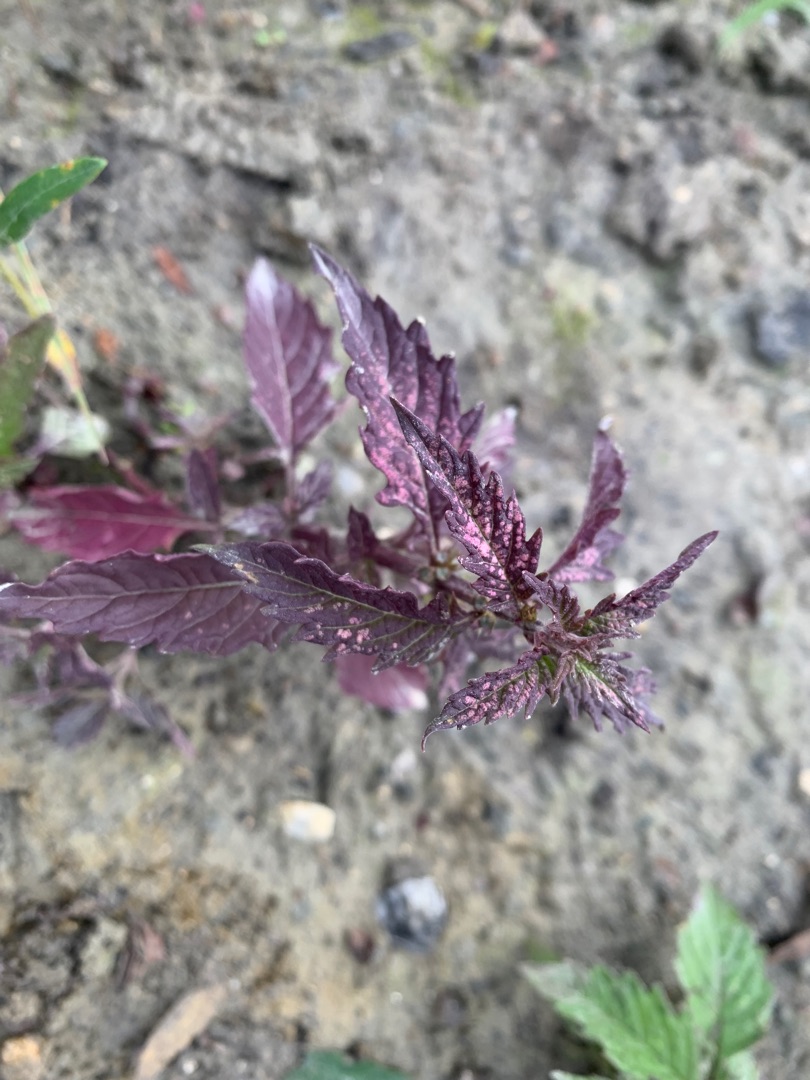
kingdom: Plantae
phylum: Tracheophyta
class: Magnoliopsida
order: Lamiales
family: Lamiaceae
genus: Lycopus
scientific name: Lycopus europaeus
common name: Sværtevæld
